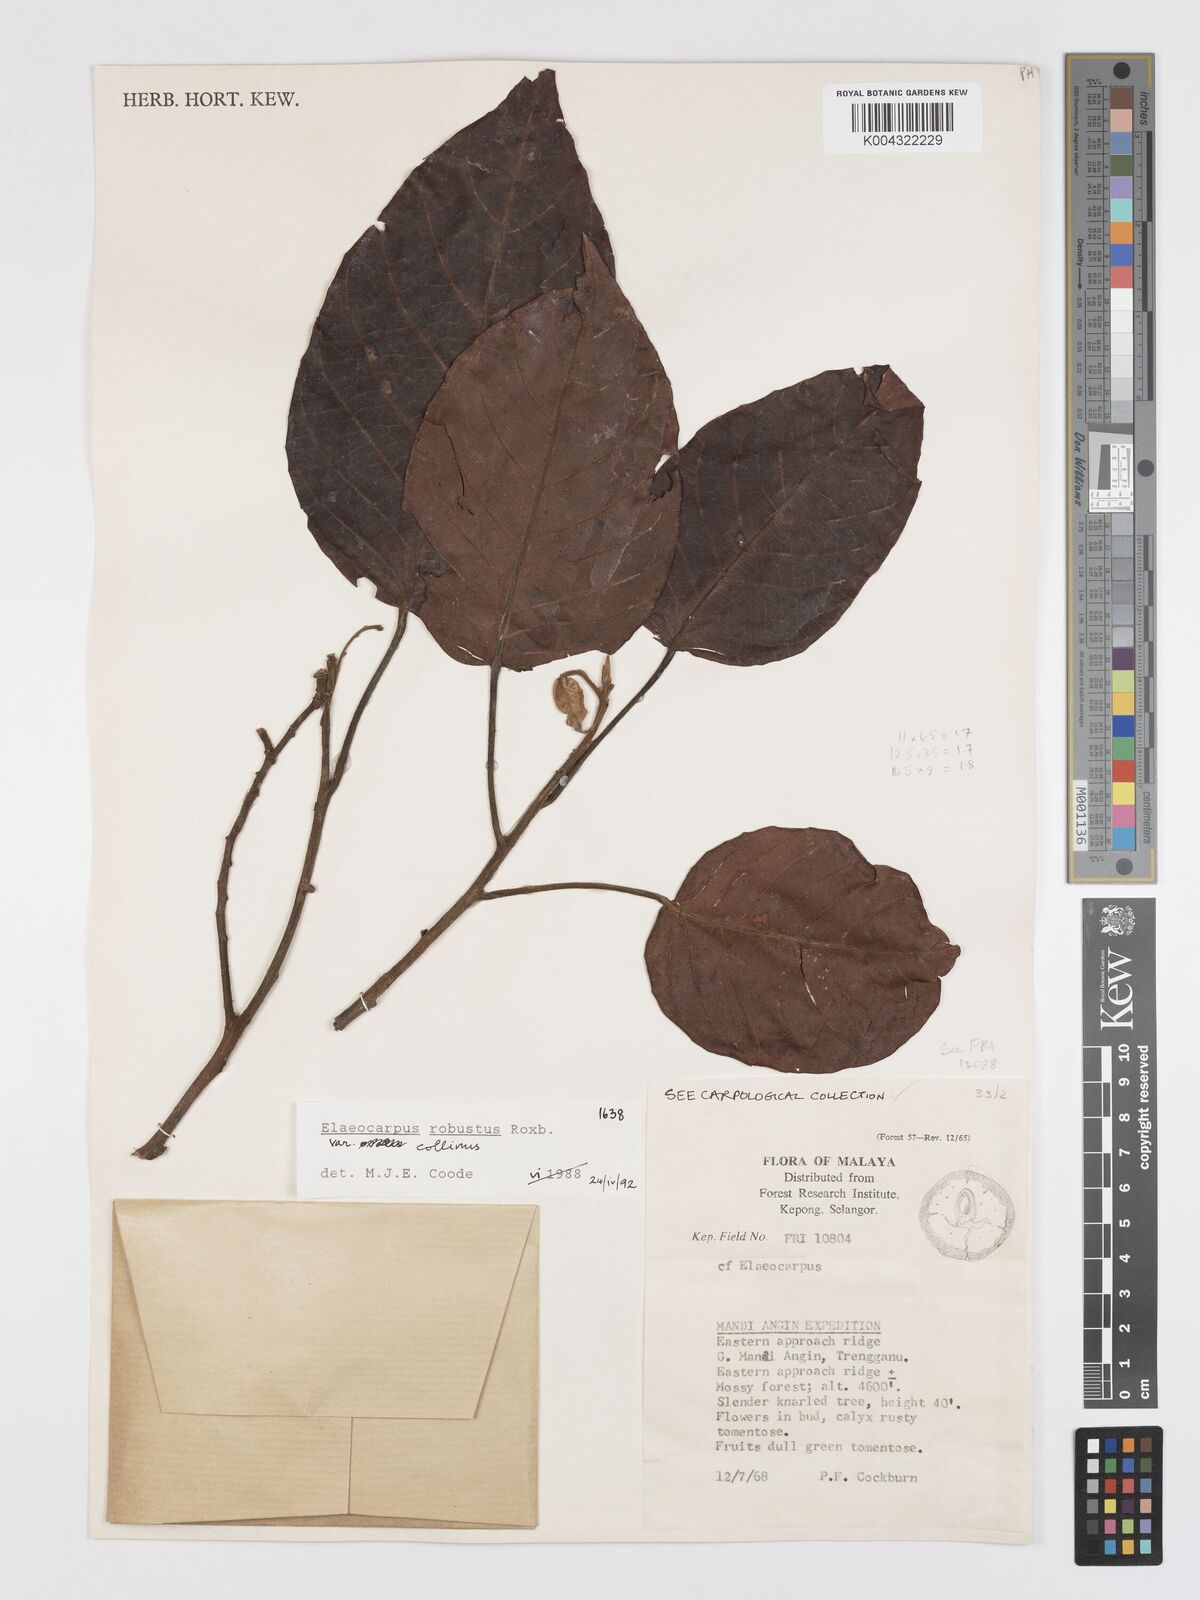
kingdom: Plantae
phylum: Tracheophyta
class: Magnoliopsida
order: Oxalidales
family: Elaeocarpaceae
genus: Elaeocarpus
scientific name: Elaeocarpus robustus
